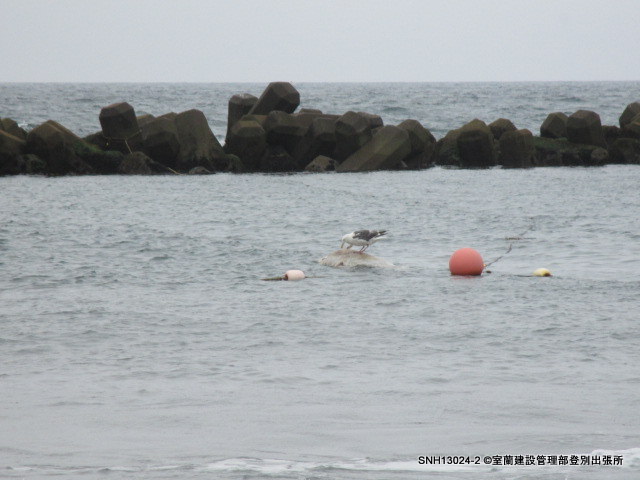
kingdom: Animalia
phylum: Chordata
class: Mammalia
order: Cetacea
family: Delphinidae
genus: Lagenorhynchus
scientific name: Lagenorhynchus obliquidens
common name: Pacific white-sided dolphin
